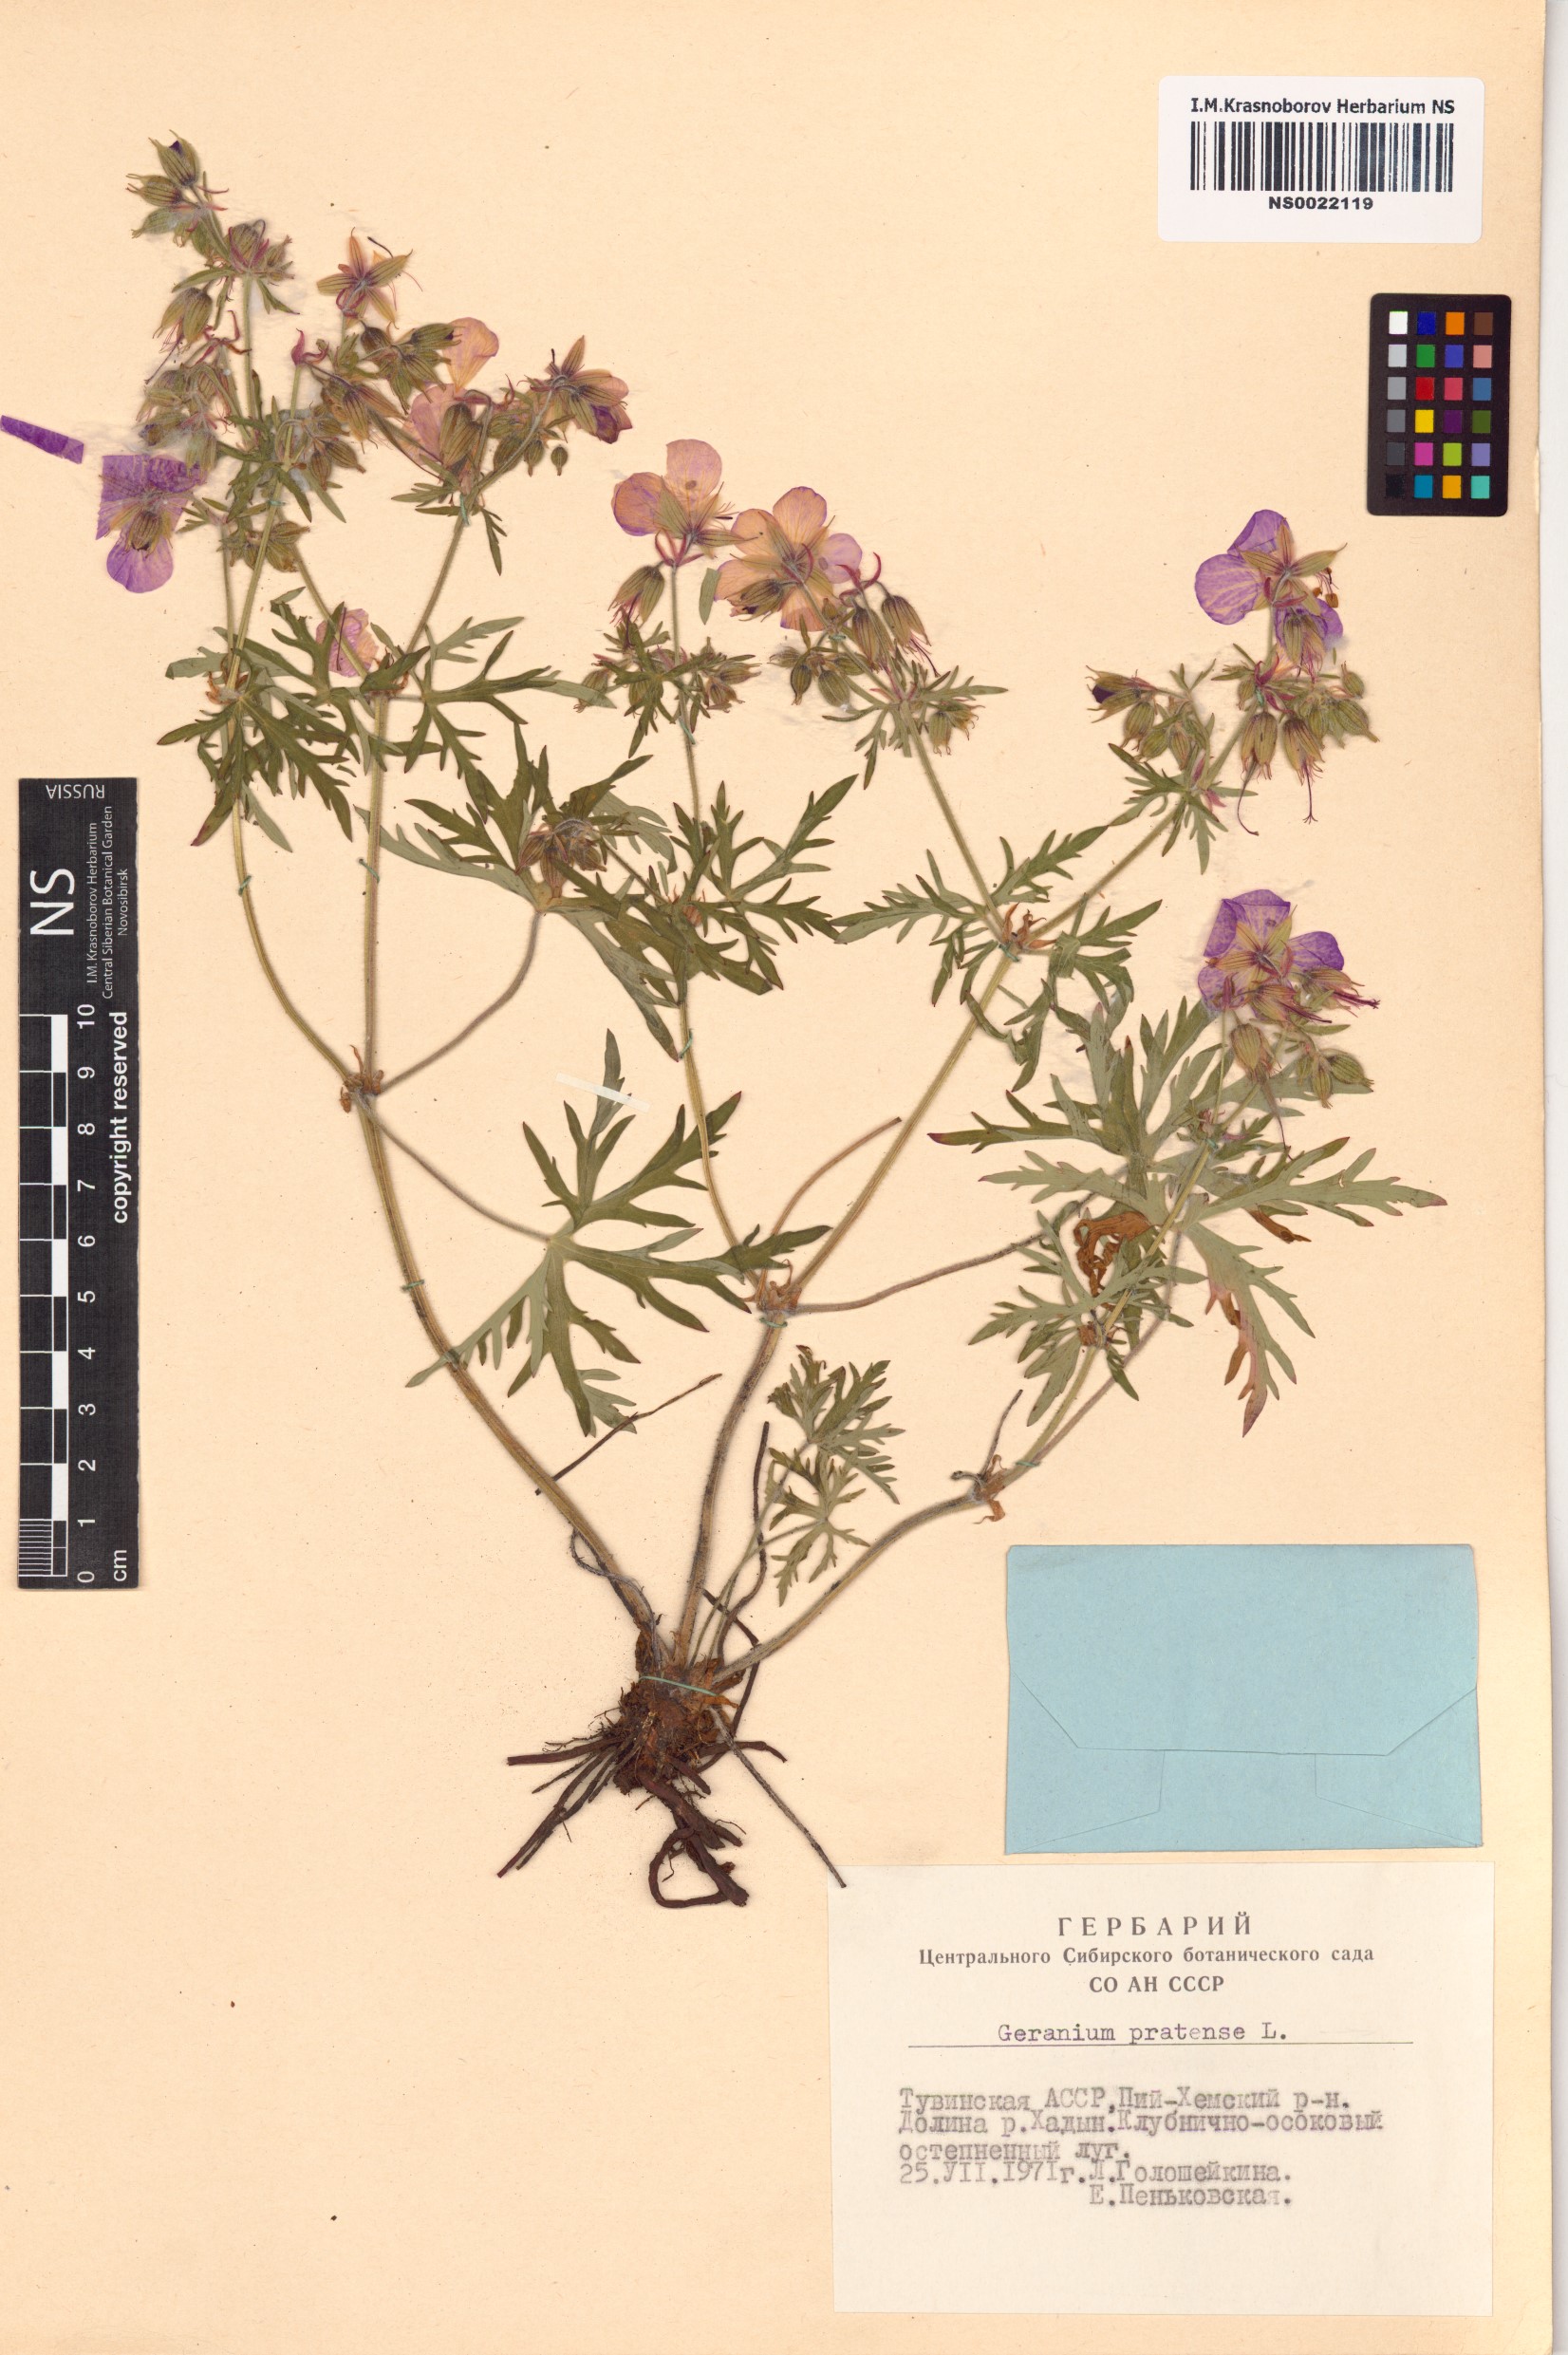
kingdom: Plantae
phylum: Tracheophyta
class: Magnoliopsida
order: Geraniales
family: Geraniaceae
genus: Geranium
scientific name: Geranium pratense
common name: Meadow crane's-bill
